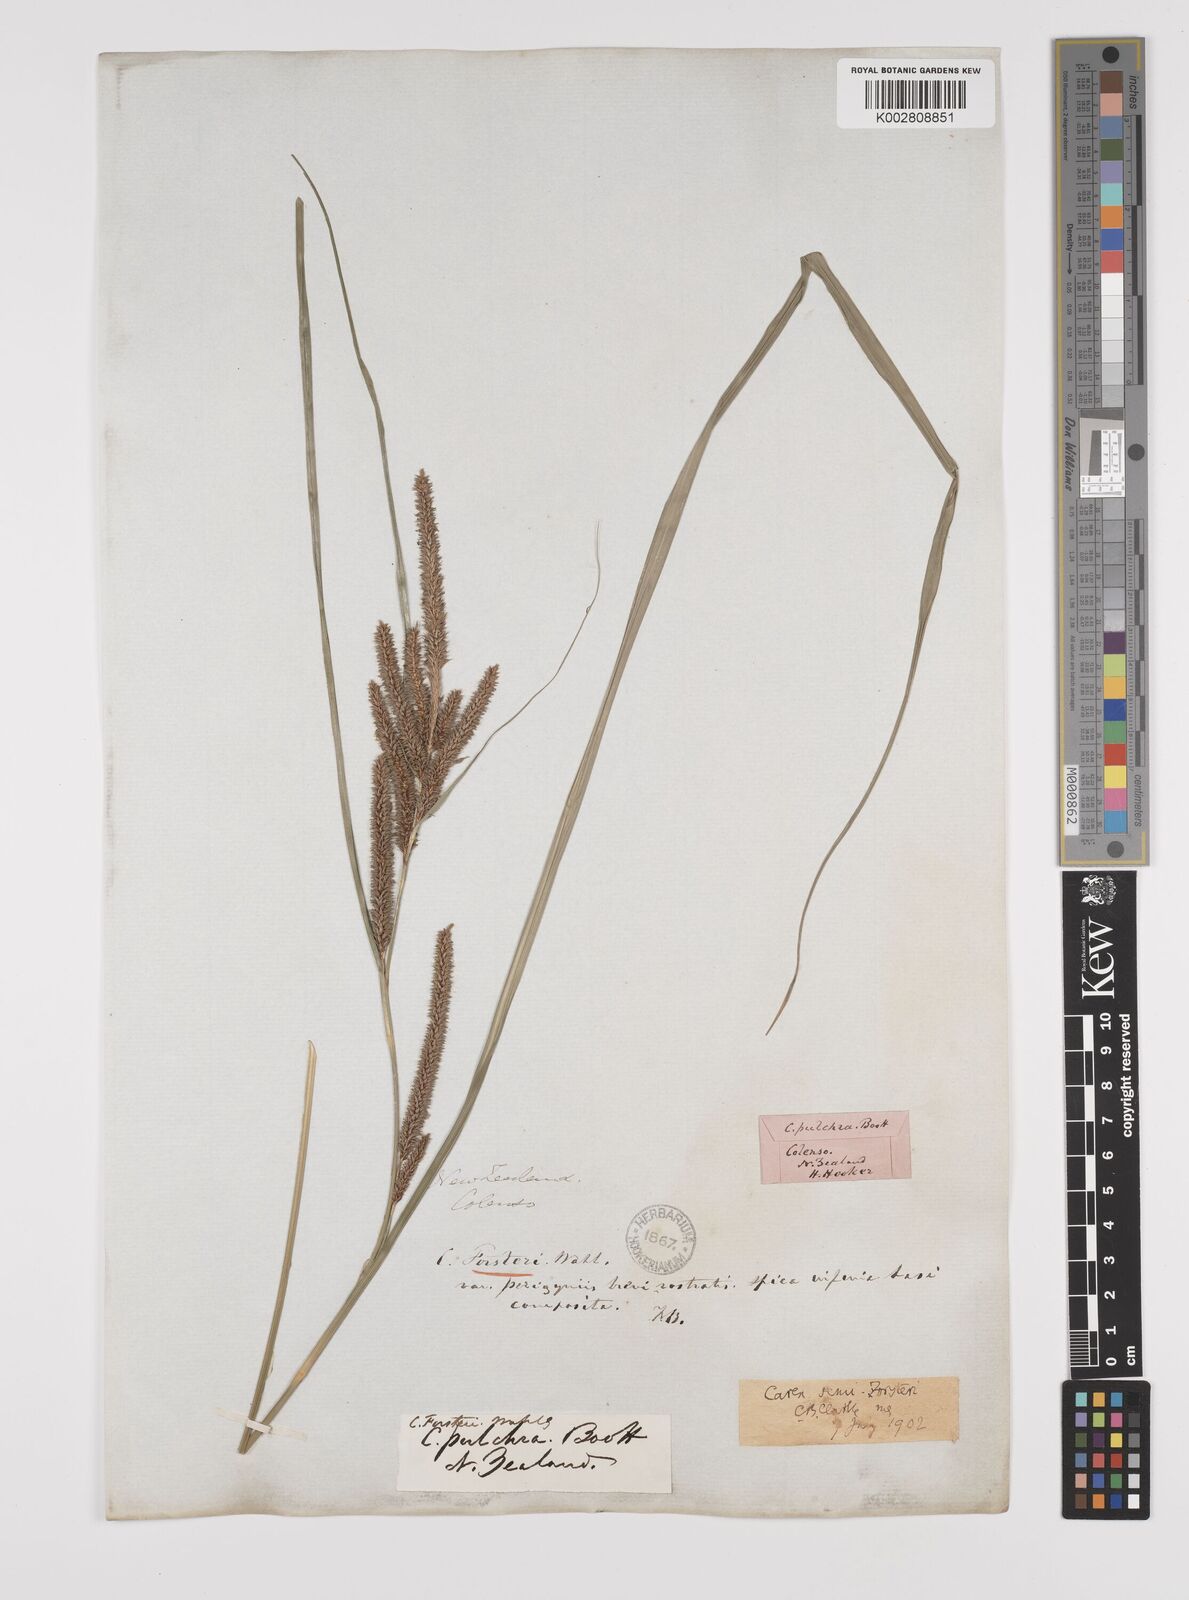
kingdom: Plantae
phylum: Tracheophyta
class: Liliopsida
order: Poales
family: Cyperaceae
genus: Carex
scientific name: Carex forsteri
